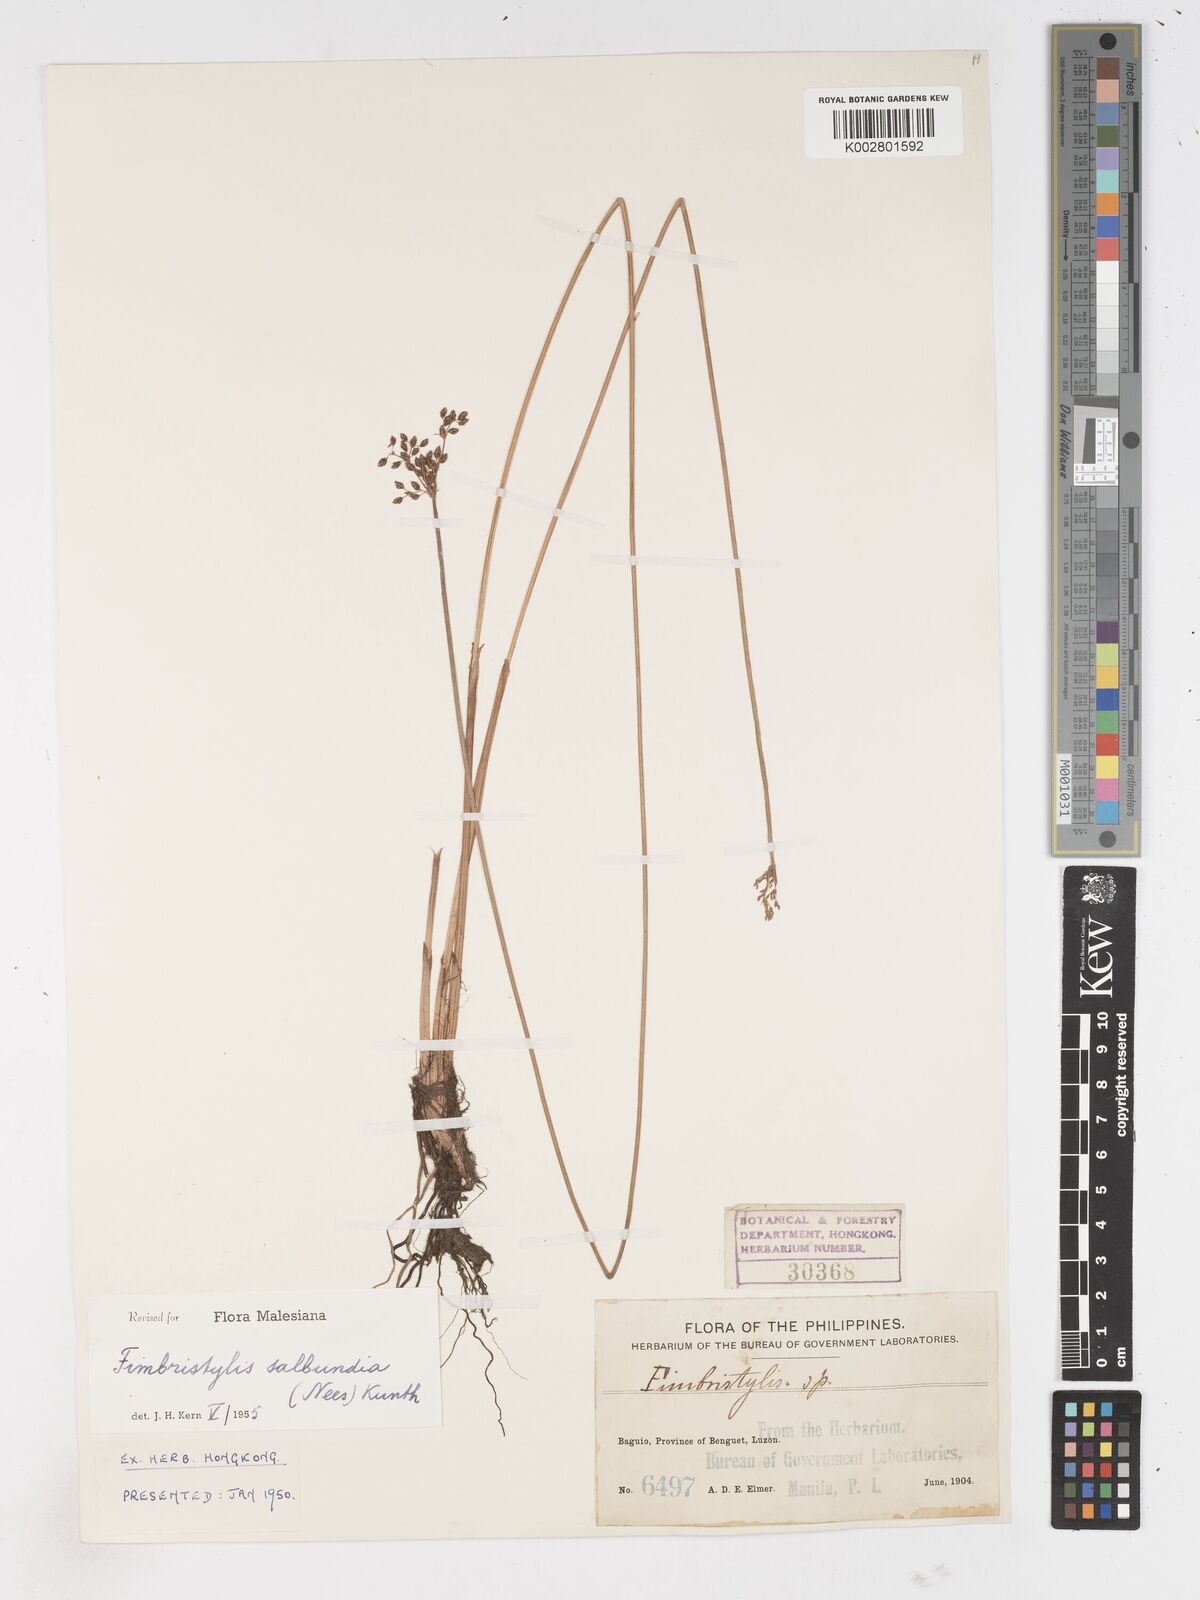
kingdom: Plantae
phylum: Tracheophyta
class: Liliopsida
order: Poales
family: Cyperaceae
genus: Fimbristylis
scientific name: Fimbristylis salbundia
